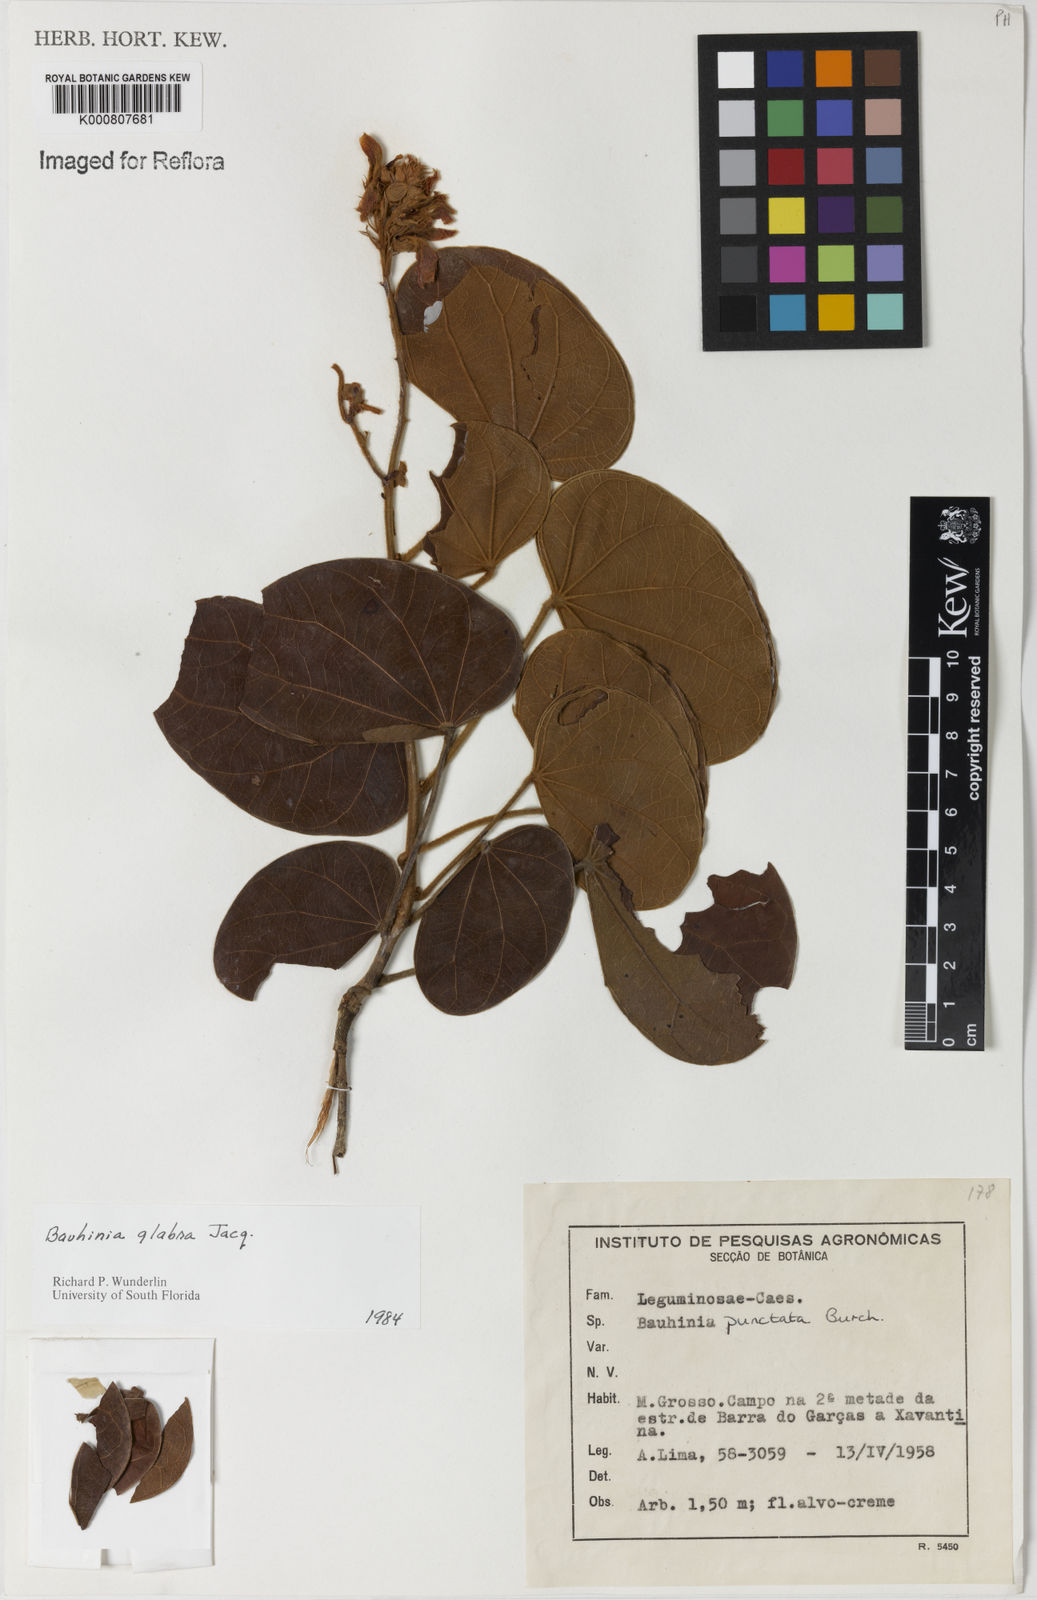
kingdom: Plantae
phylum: Tracheophyta
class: Magnoliopsida
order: Fabales
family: Fabaceae
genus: Schnella
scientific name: Schnella glabra
